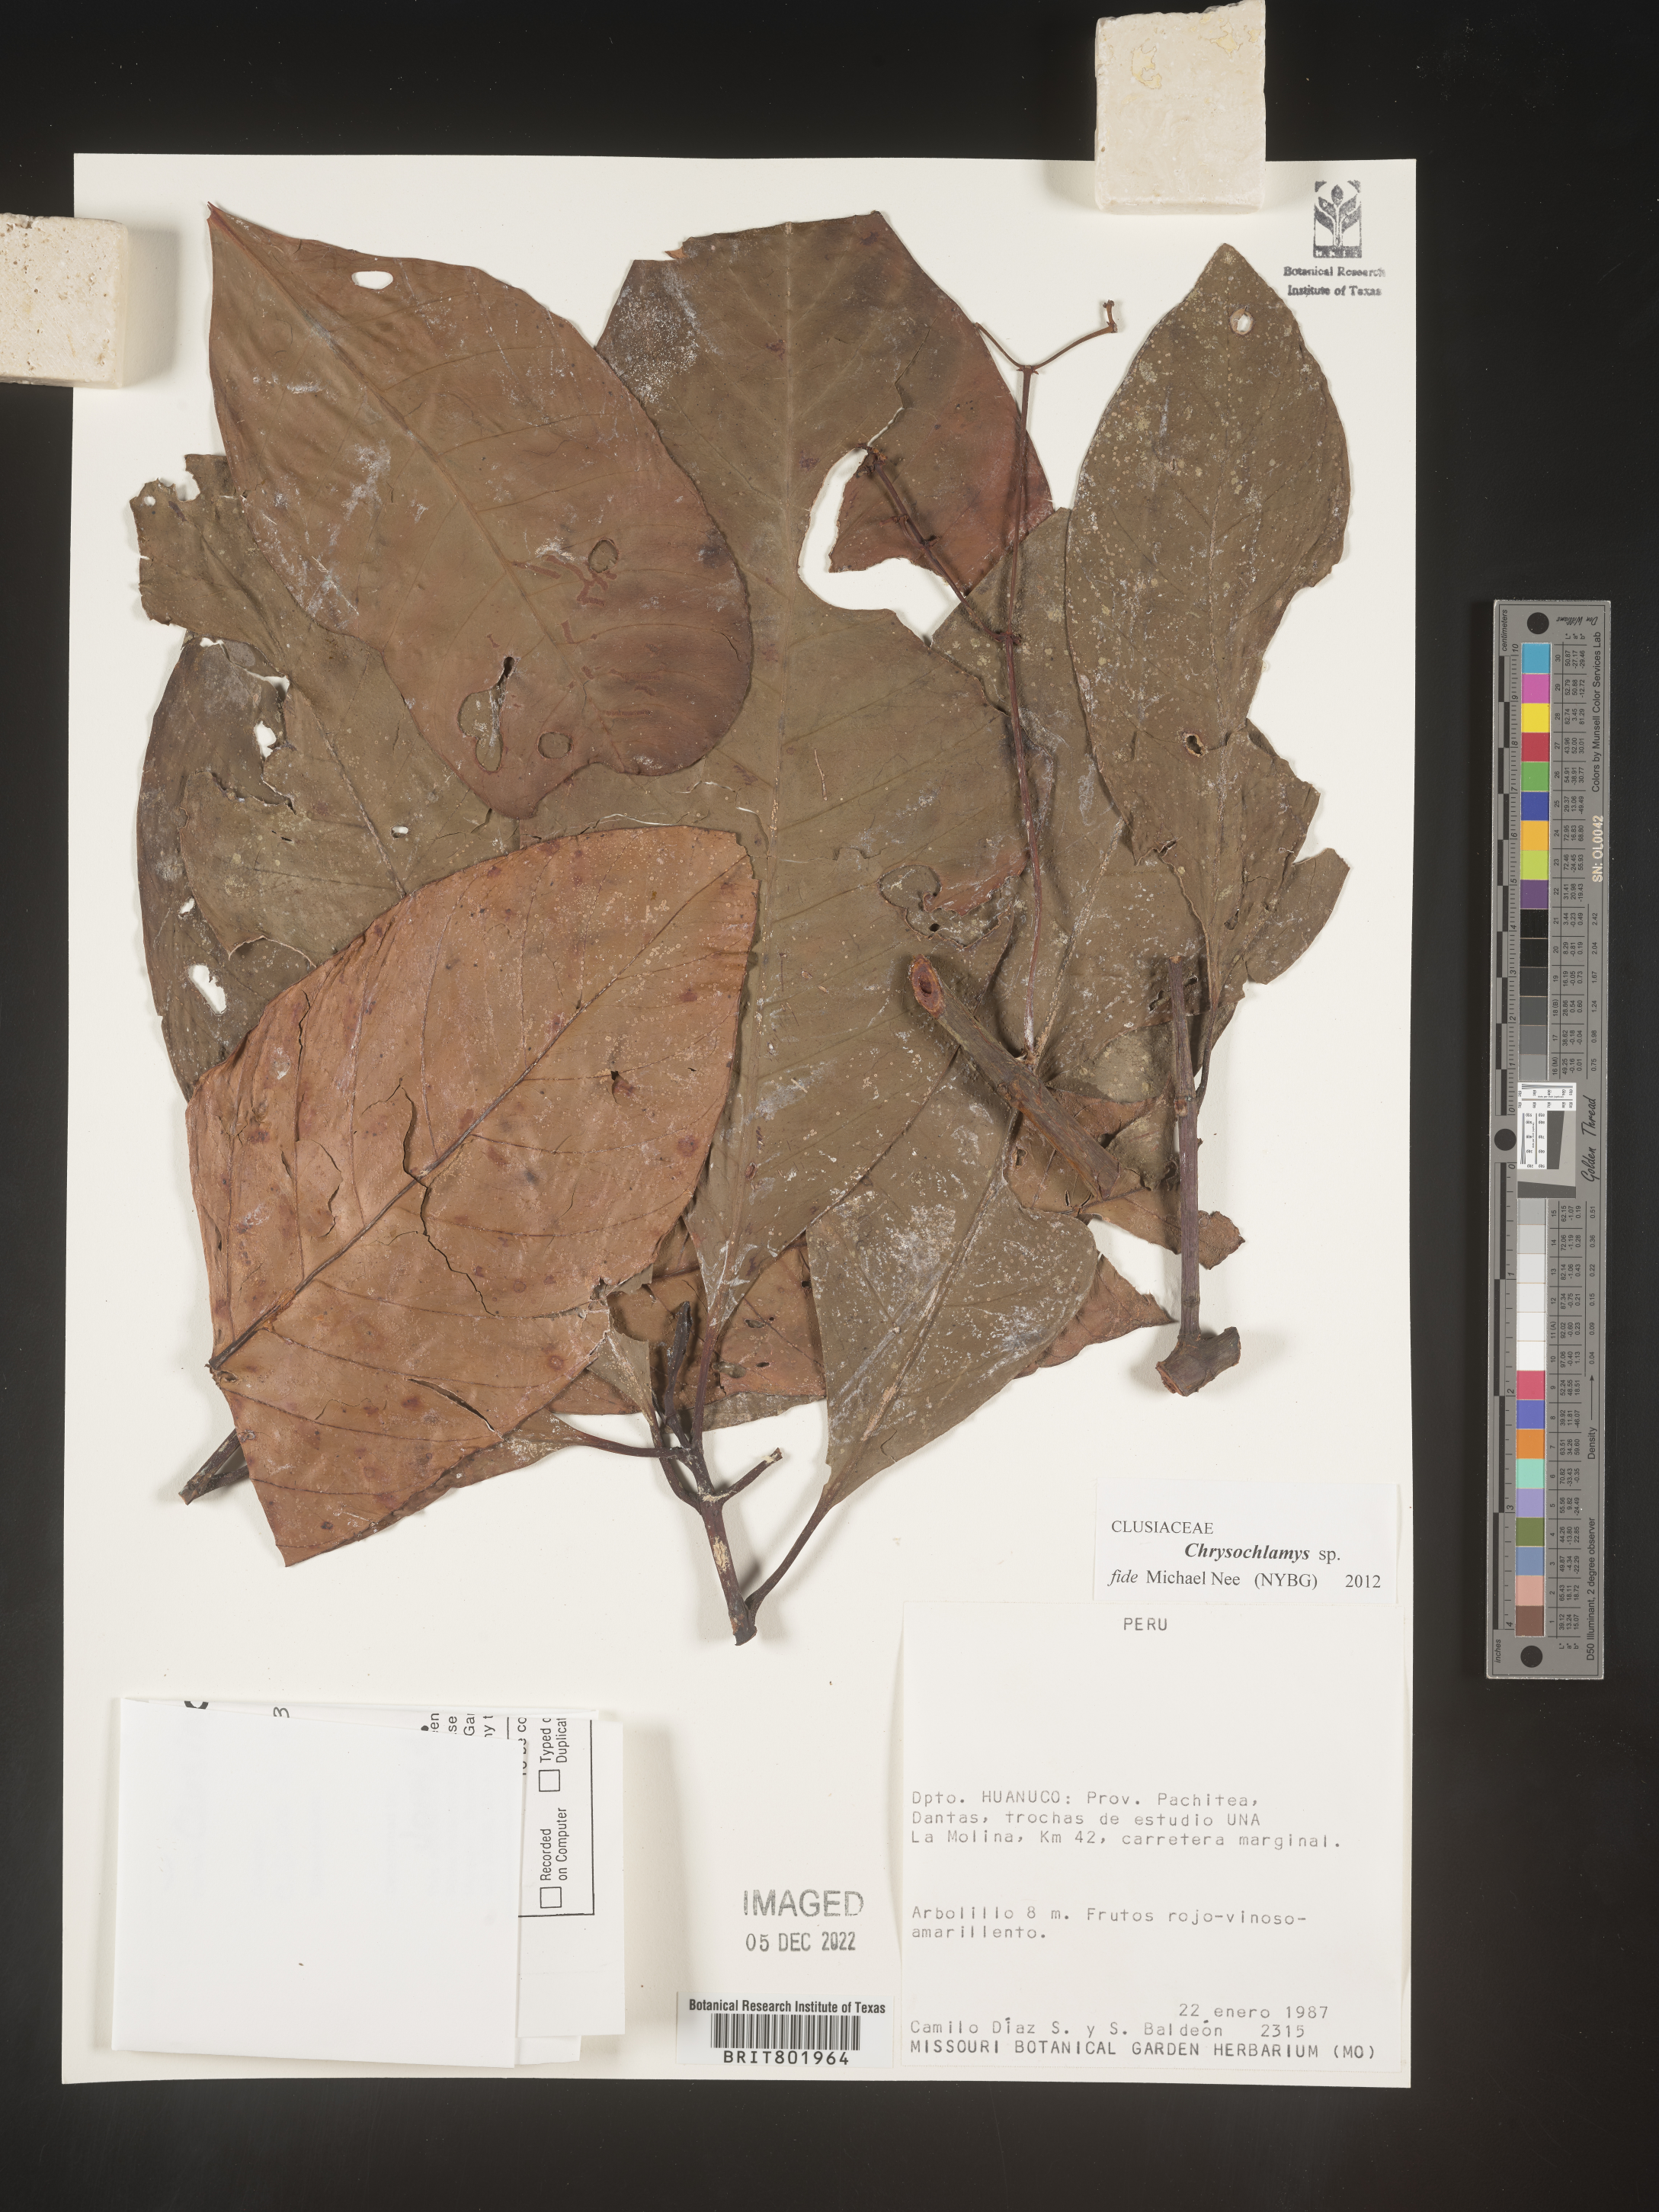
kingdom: Plantae
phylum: Tracheophyta
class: Magnoliopsida
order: Malpighiales
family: Clusiaceae
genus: Chrysochlamys
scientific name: Chrysochlamys
